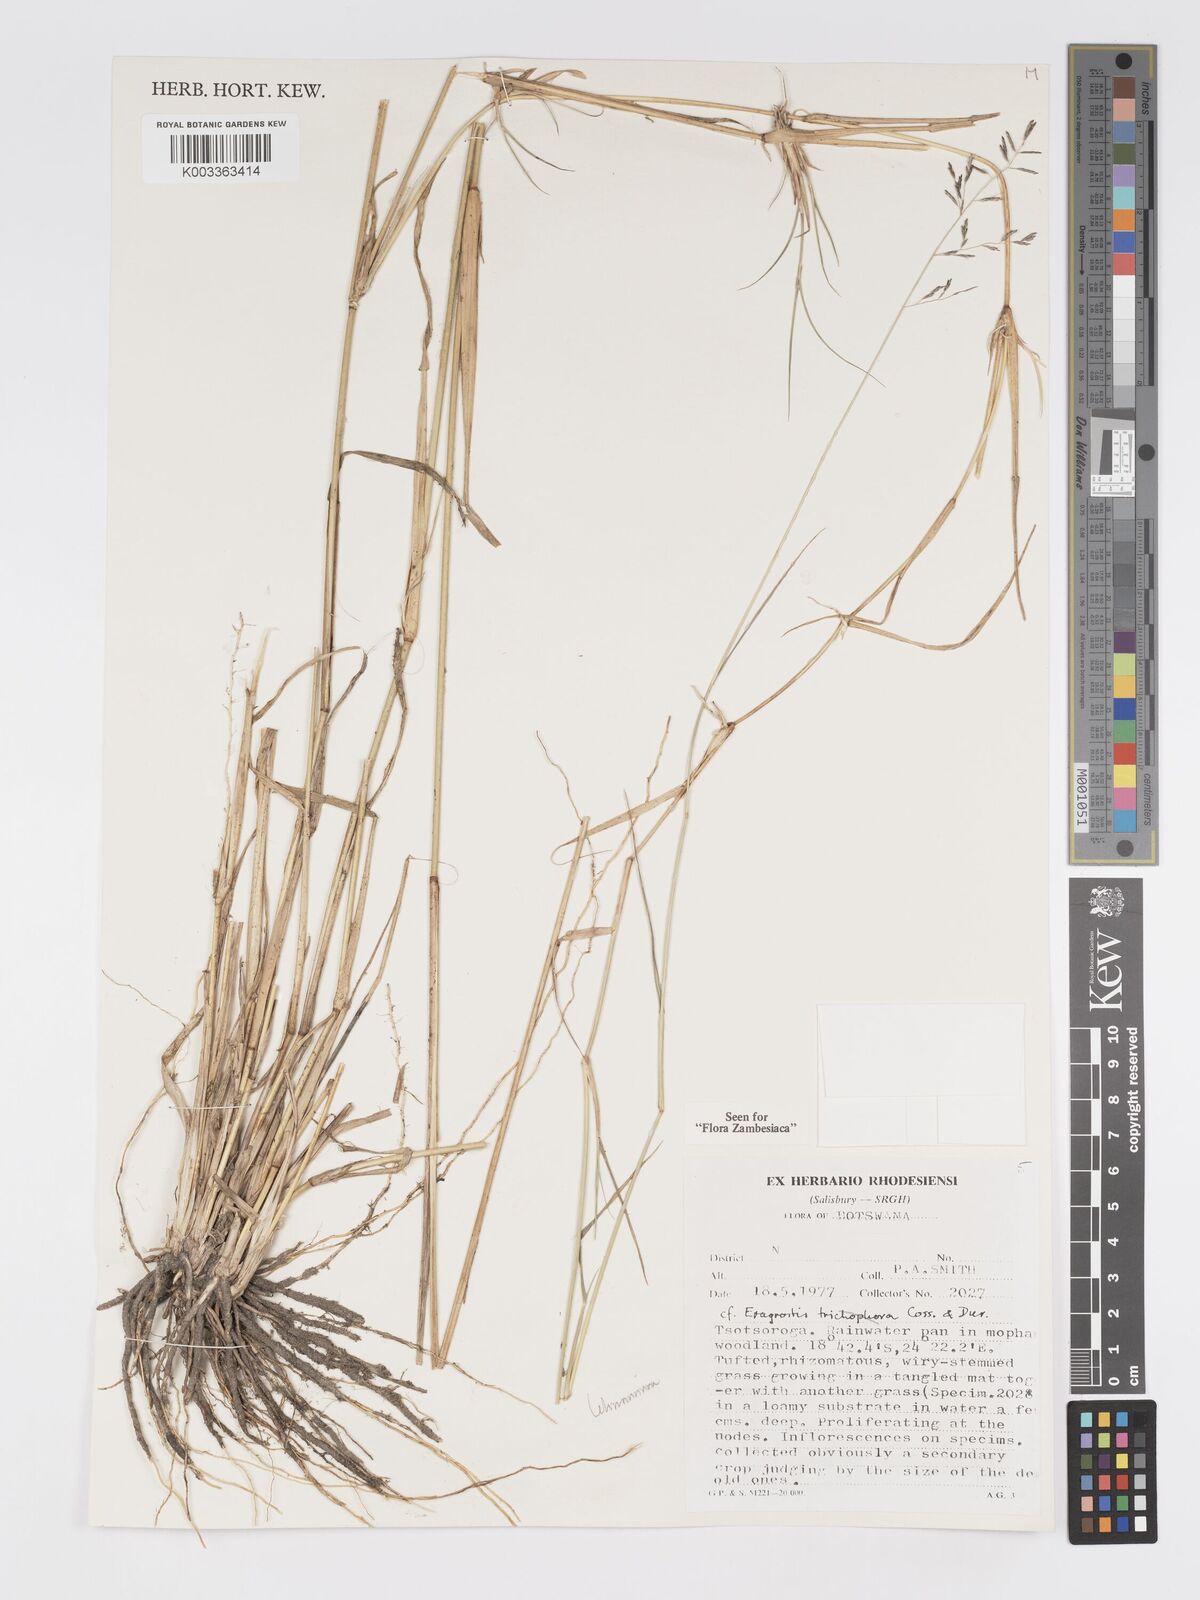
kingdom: Plantae
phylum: Tracheophyta
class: Liliopsida
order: Poales
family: Poaceae
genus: Eragrostis
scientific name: Eragrostis lehmanniana
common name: Lehmann lovegrass
